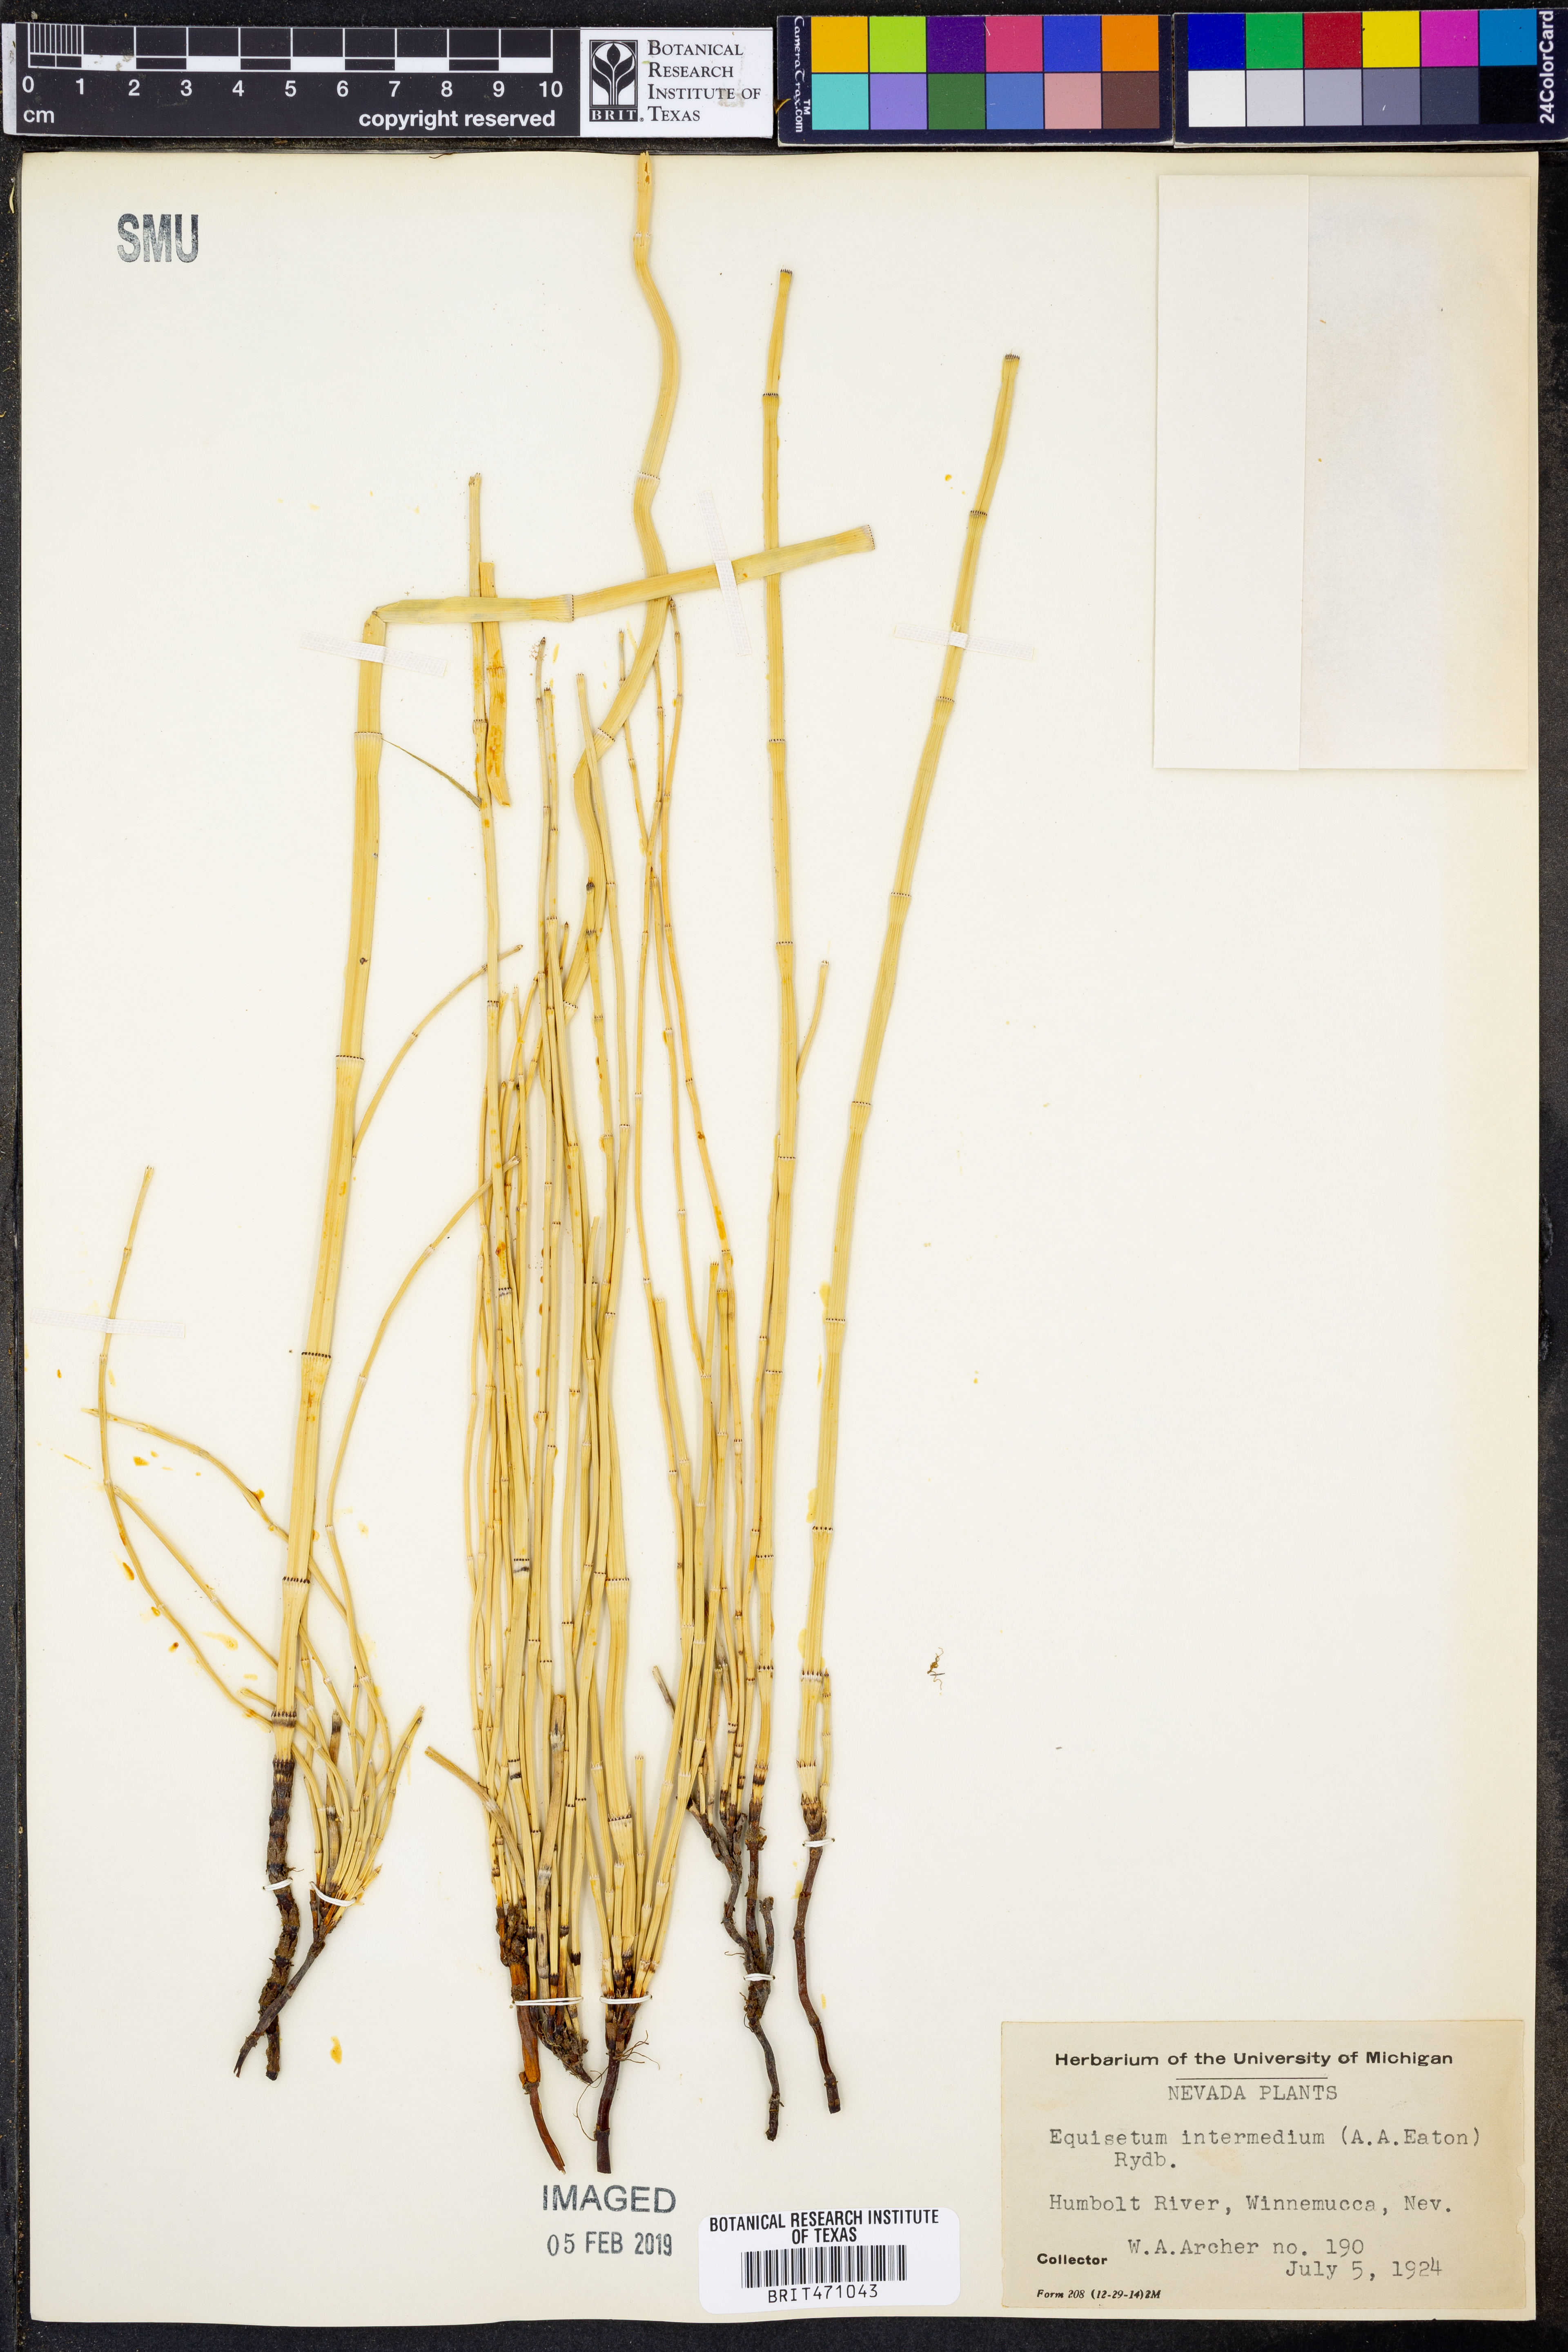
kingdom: Plantae
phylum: Tracheophyta
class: Polypodiopsida
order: Equisetales
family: Equisetaceae
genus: Equisetum
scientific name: Equisetum ferrissii
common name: Ferriss' horsetail
